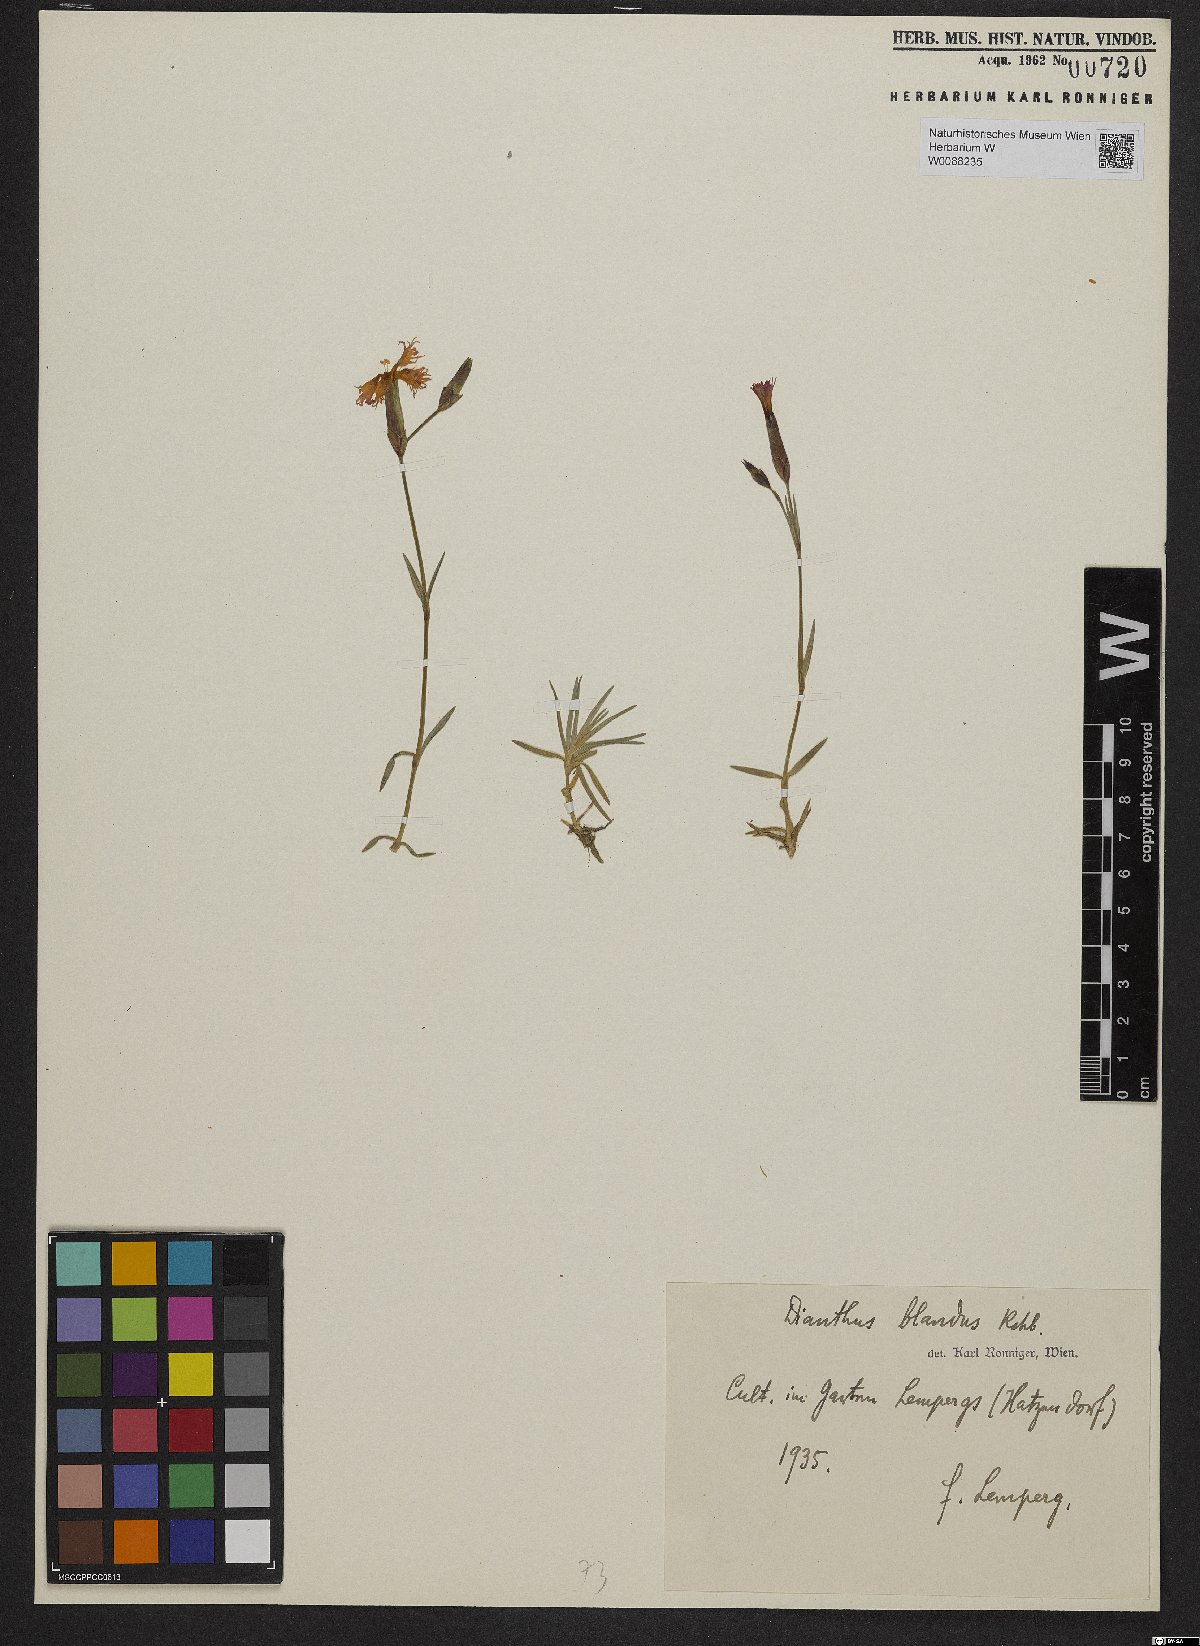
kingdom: Plantae
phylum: Tracheophyta
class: Magnoliopsida
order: Caryophyllales
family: Caryophyllaceae
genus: Dianthus
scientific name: Dianthus plumarius
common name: Pink
